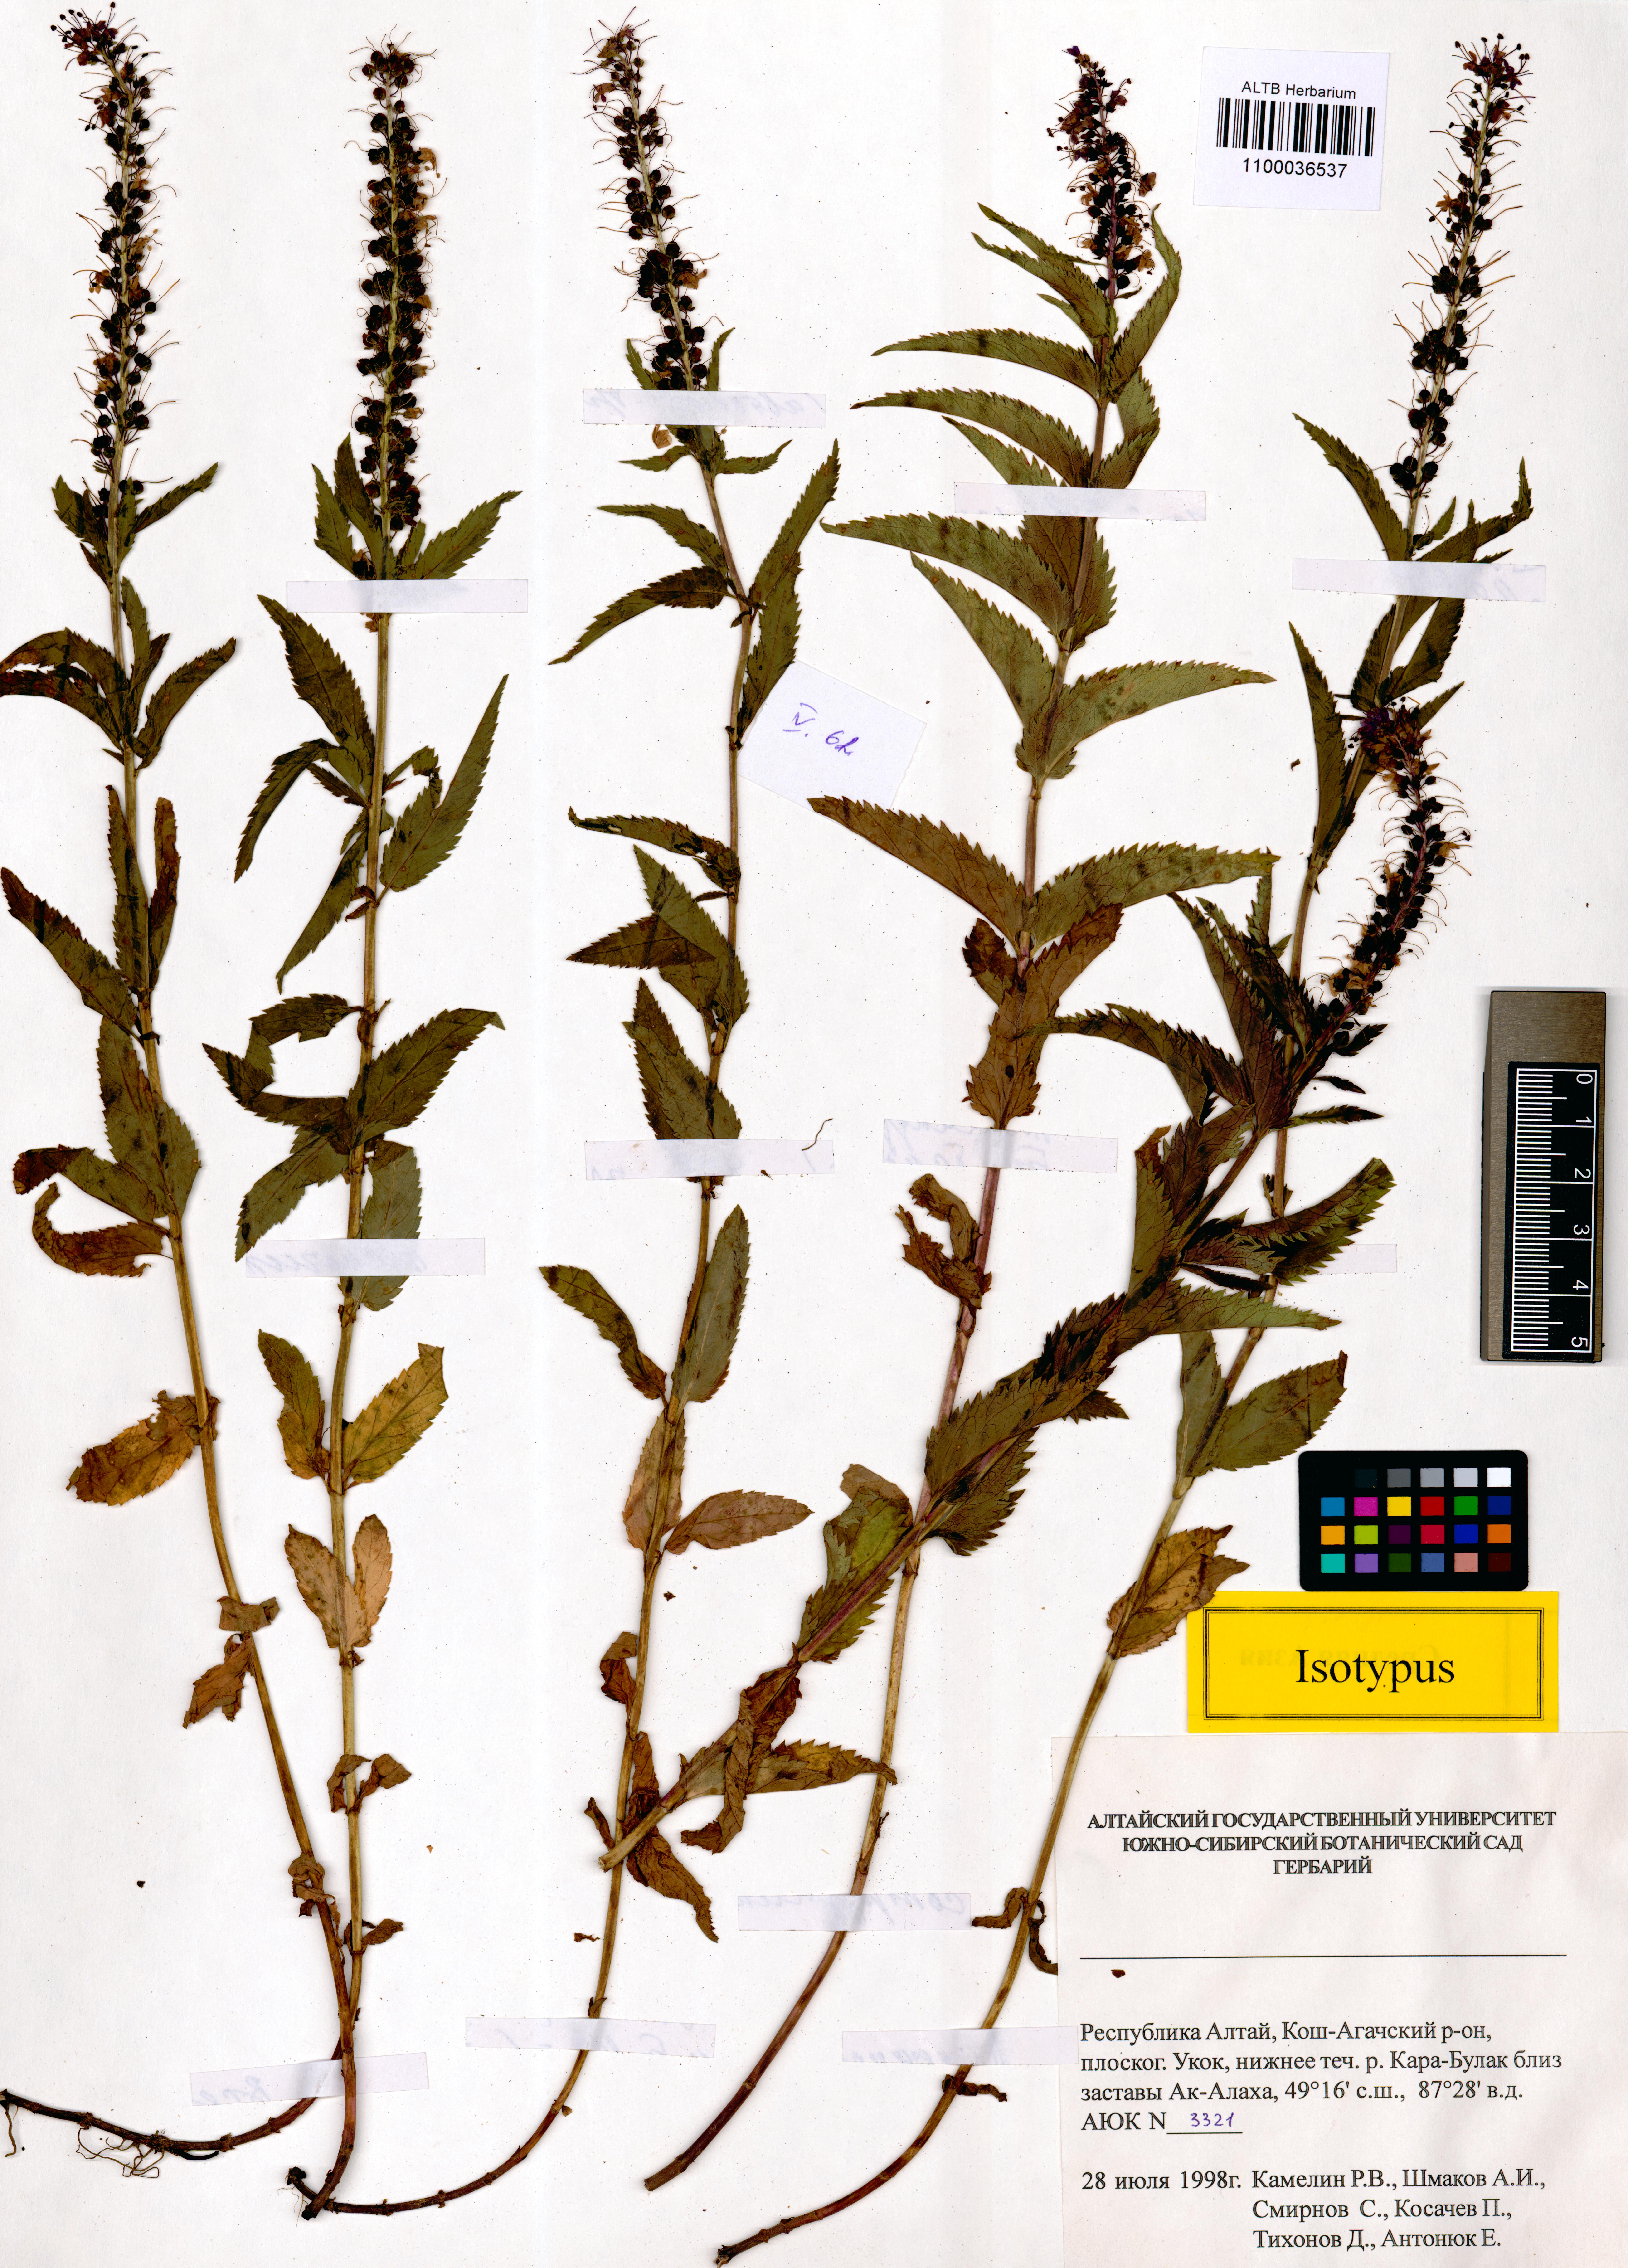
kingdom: Plantae
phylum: Tracheophyta
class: Magnoliopsida
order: Lamiales
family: Plantaginaceae
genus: Veronica
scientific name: Veronica schmakovii
